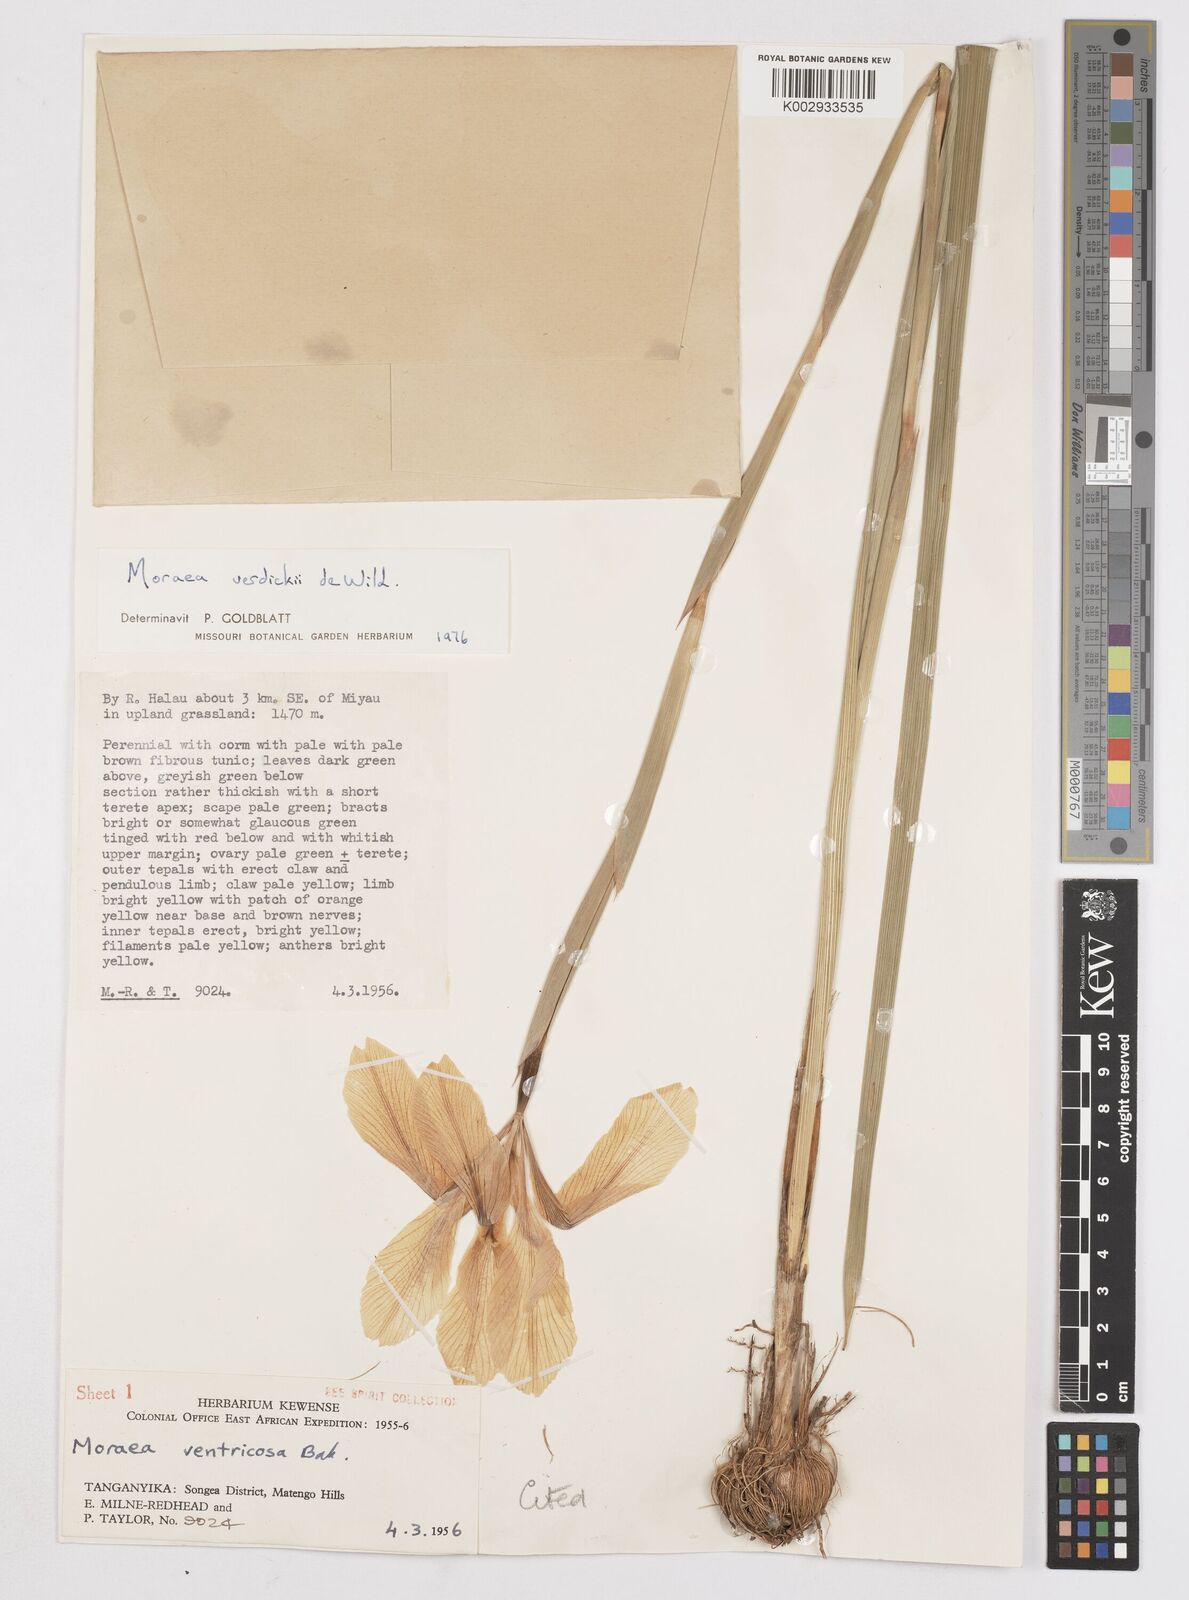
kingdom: Plantae
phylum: Tracheophyta
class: Liliopsida
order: Asparagales
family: Iridaceae
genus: Moraea
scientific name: Moraea verdickii
